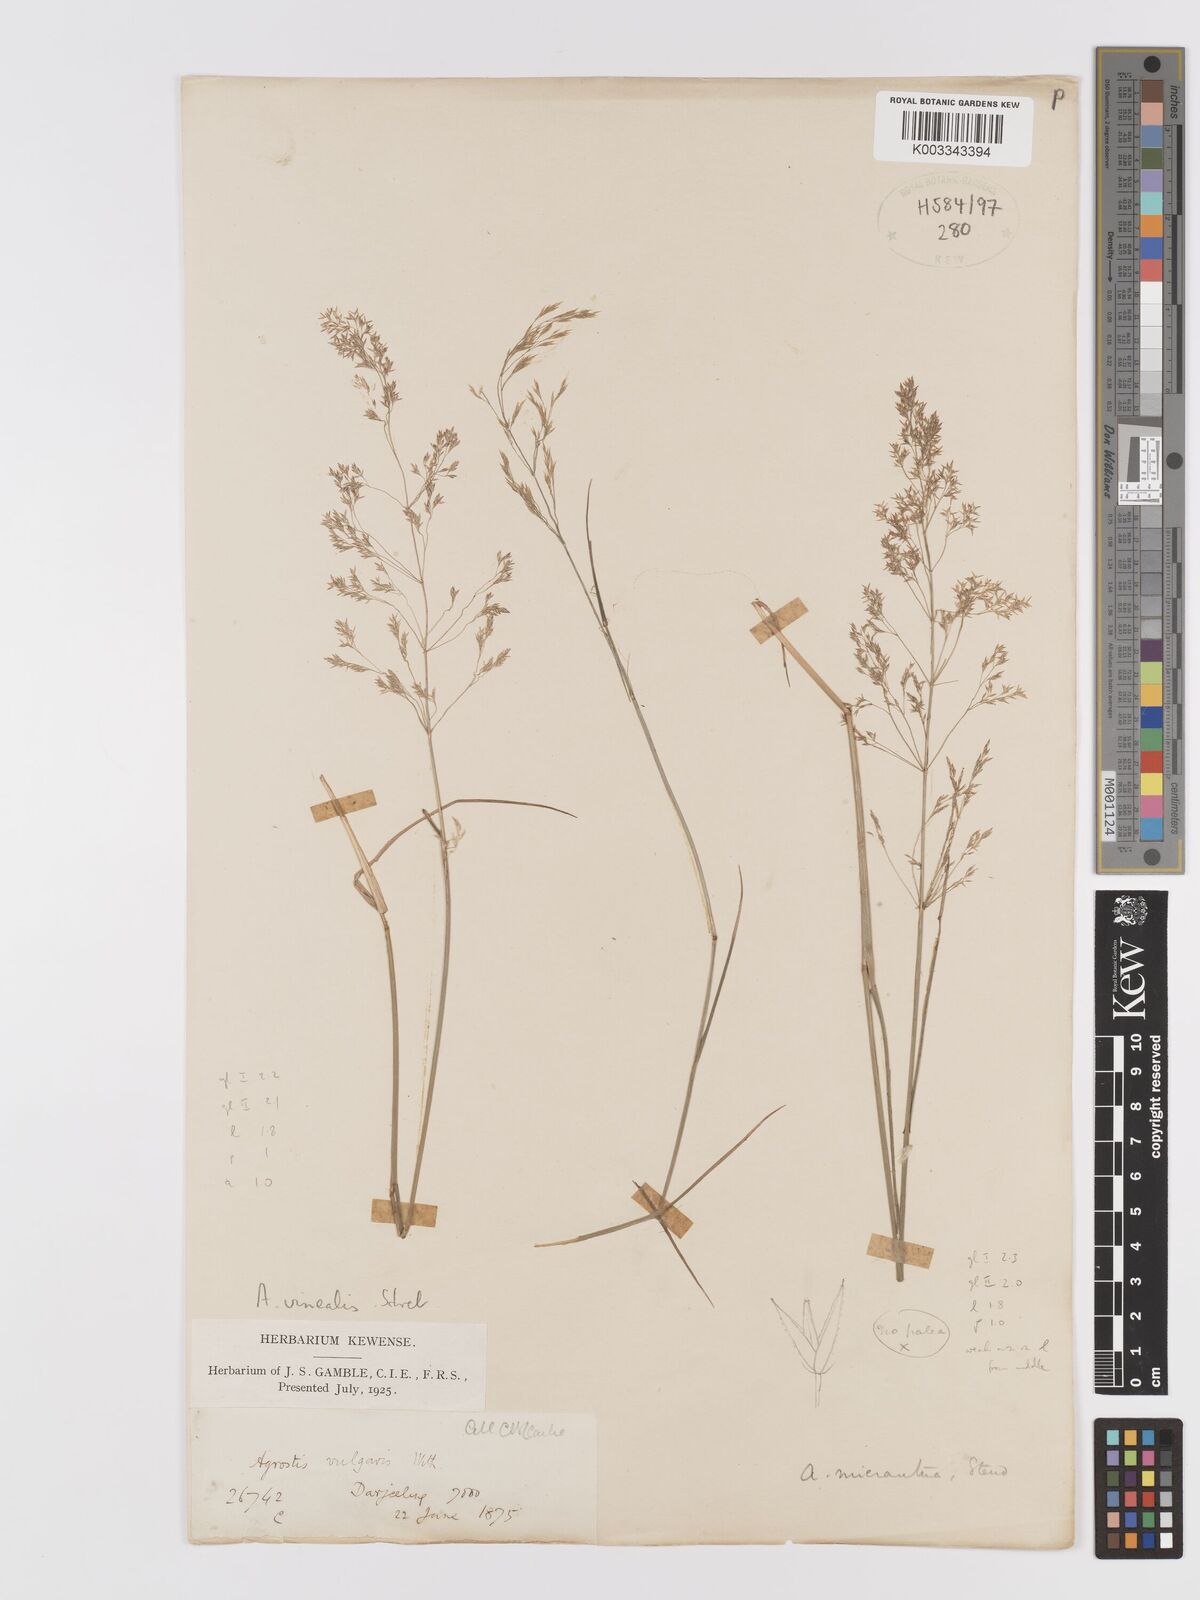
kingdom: Plantae
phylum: Tracheophyta
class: Liliopsida
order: Poales
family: Poaceae
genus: Agrostis
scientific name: Agrostis vinealis
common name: Brown bent
